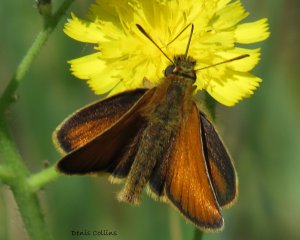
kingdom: Animalia
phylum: Arthropoda
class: Insecta
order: Lepidoptera
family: Hesperiidae
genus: Thymelicus
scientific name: Thymelicus lineola
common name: European Skipper
